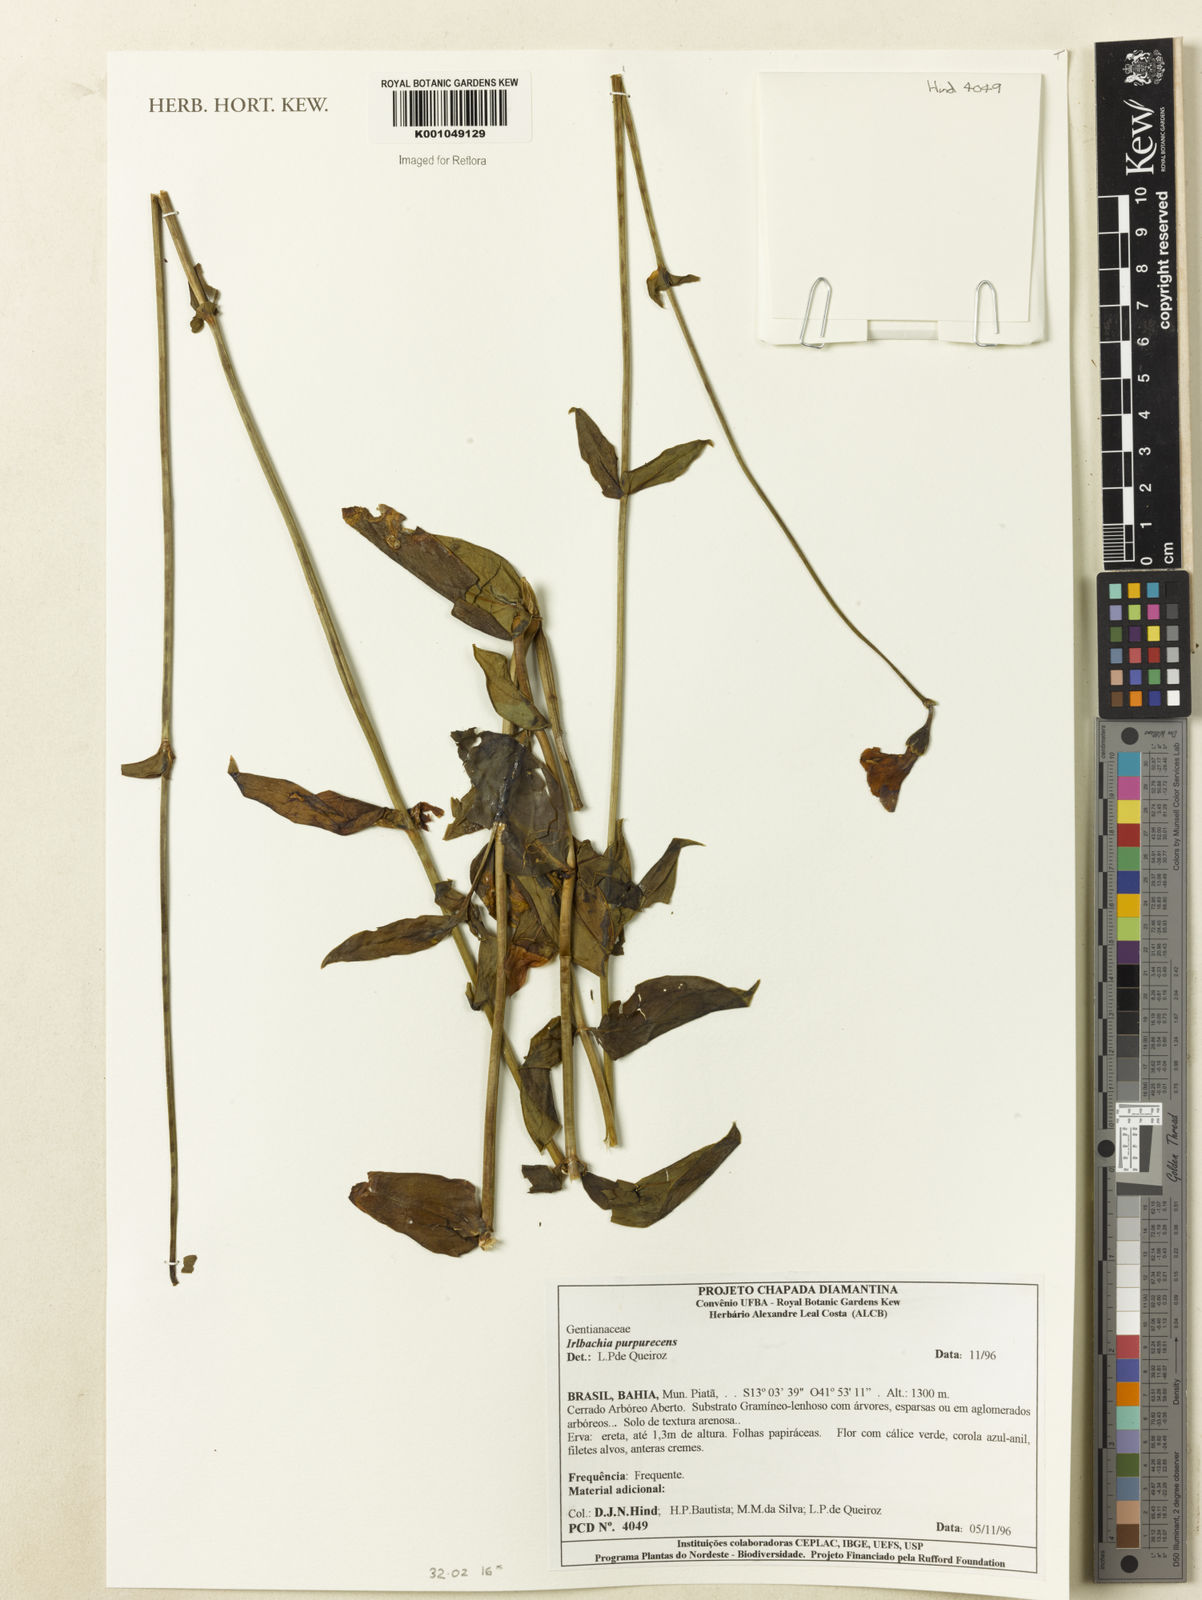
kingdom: Plantae
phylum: Tracheophyta
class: Magnoliopsida
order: Gentianales
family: Gentianaceae
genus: Chelonanthus
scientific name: Chelonanthus purpurascens
